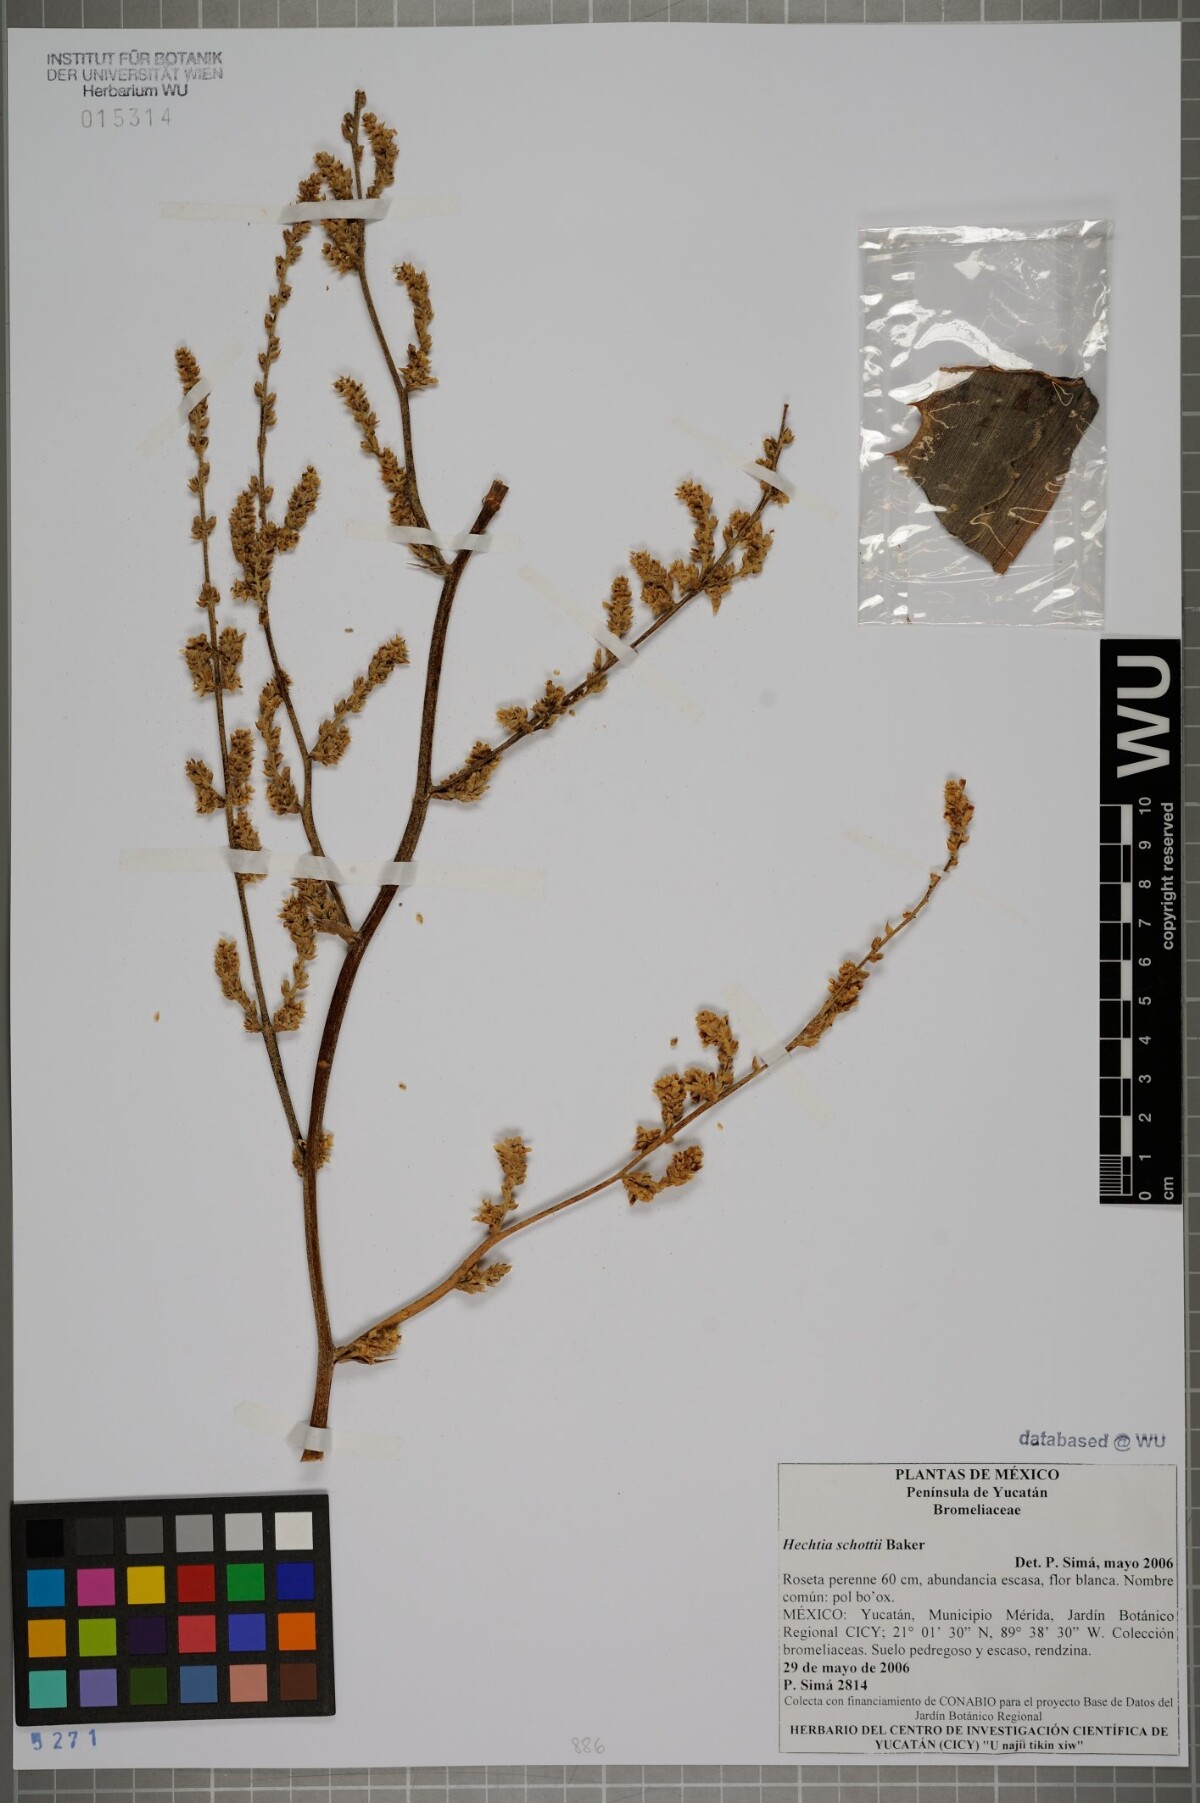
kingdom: Plantae
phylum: Tracheophyta
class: Liliopsida
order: Poales
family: Bromeliaceae
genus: Hechtia
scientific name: Hechtia schottii
